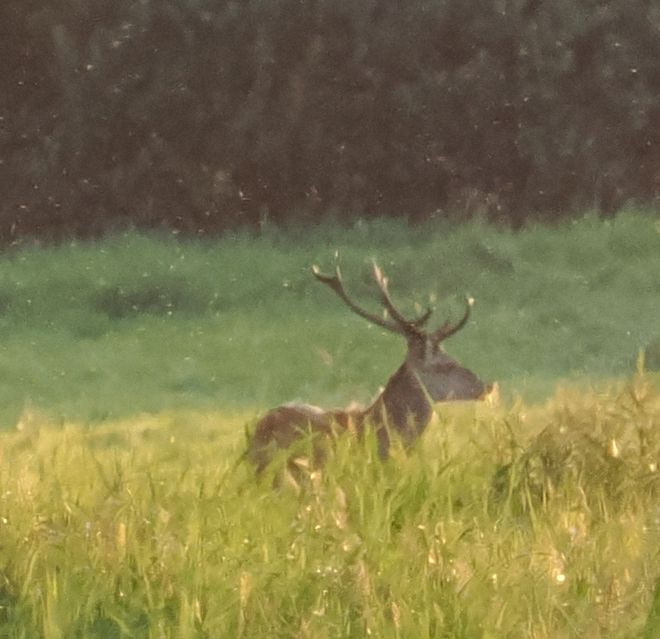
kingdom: Animalia
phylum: Chordata
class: Mammalia
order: Artiodactyla
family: Cervidae
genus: Cervus
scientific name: Cervus elaphus
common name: Krondyr
